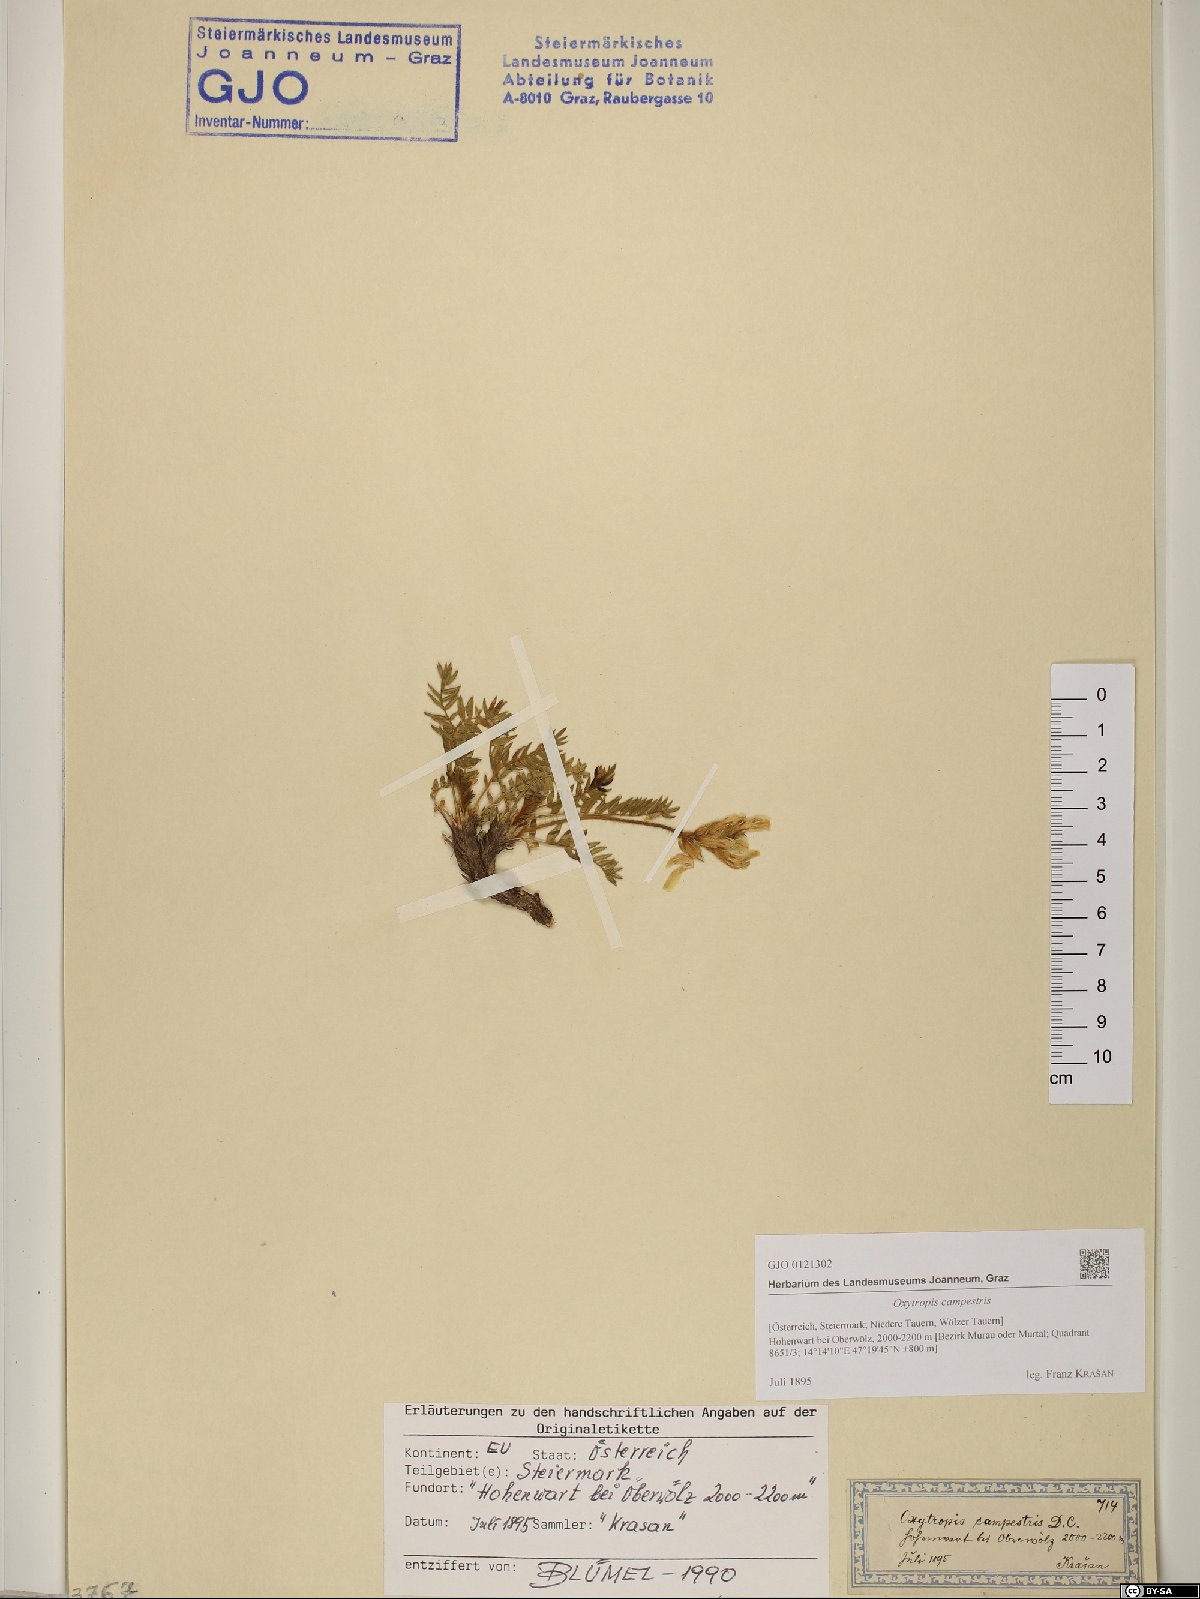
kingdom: Plantae
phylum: Tracheophyta
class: Magnoliopsida
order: Fabales
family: Fabaceae
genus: Oxytropis
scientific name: Oxytropis campestris
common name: Field locoweed
